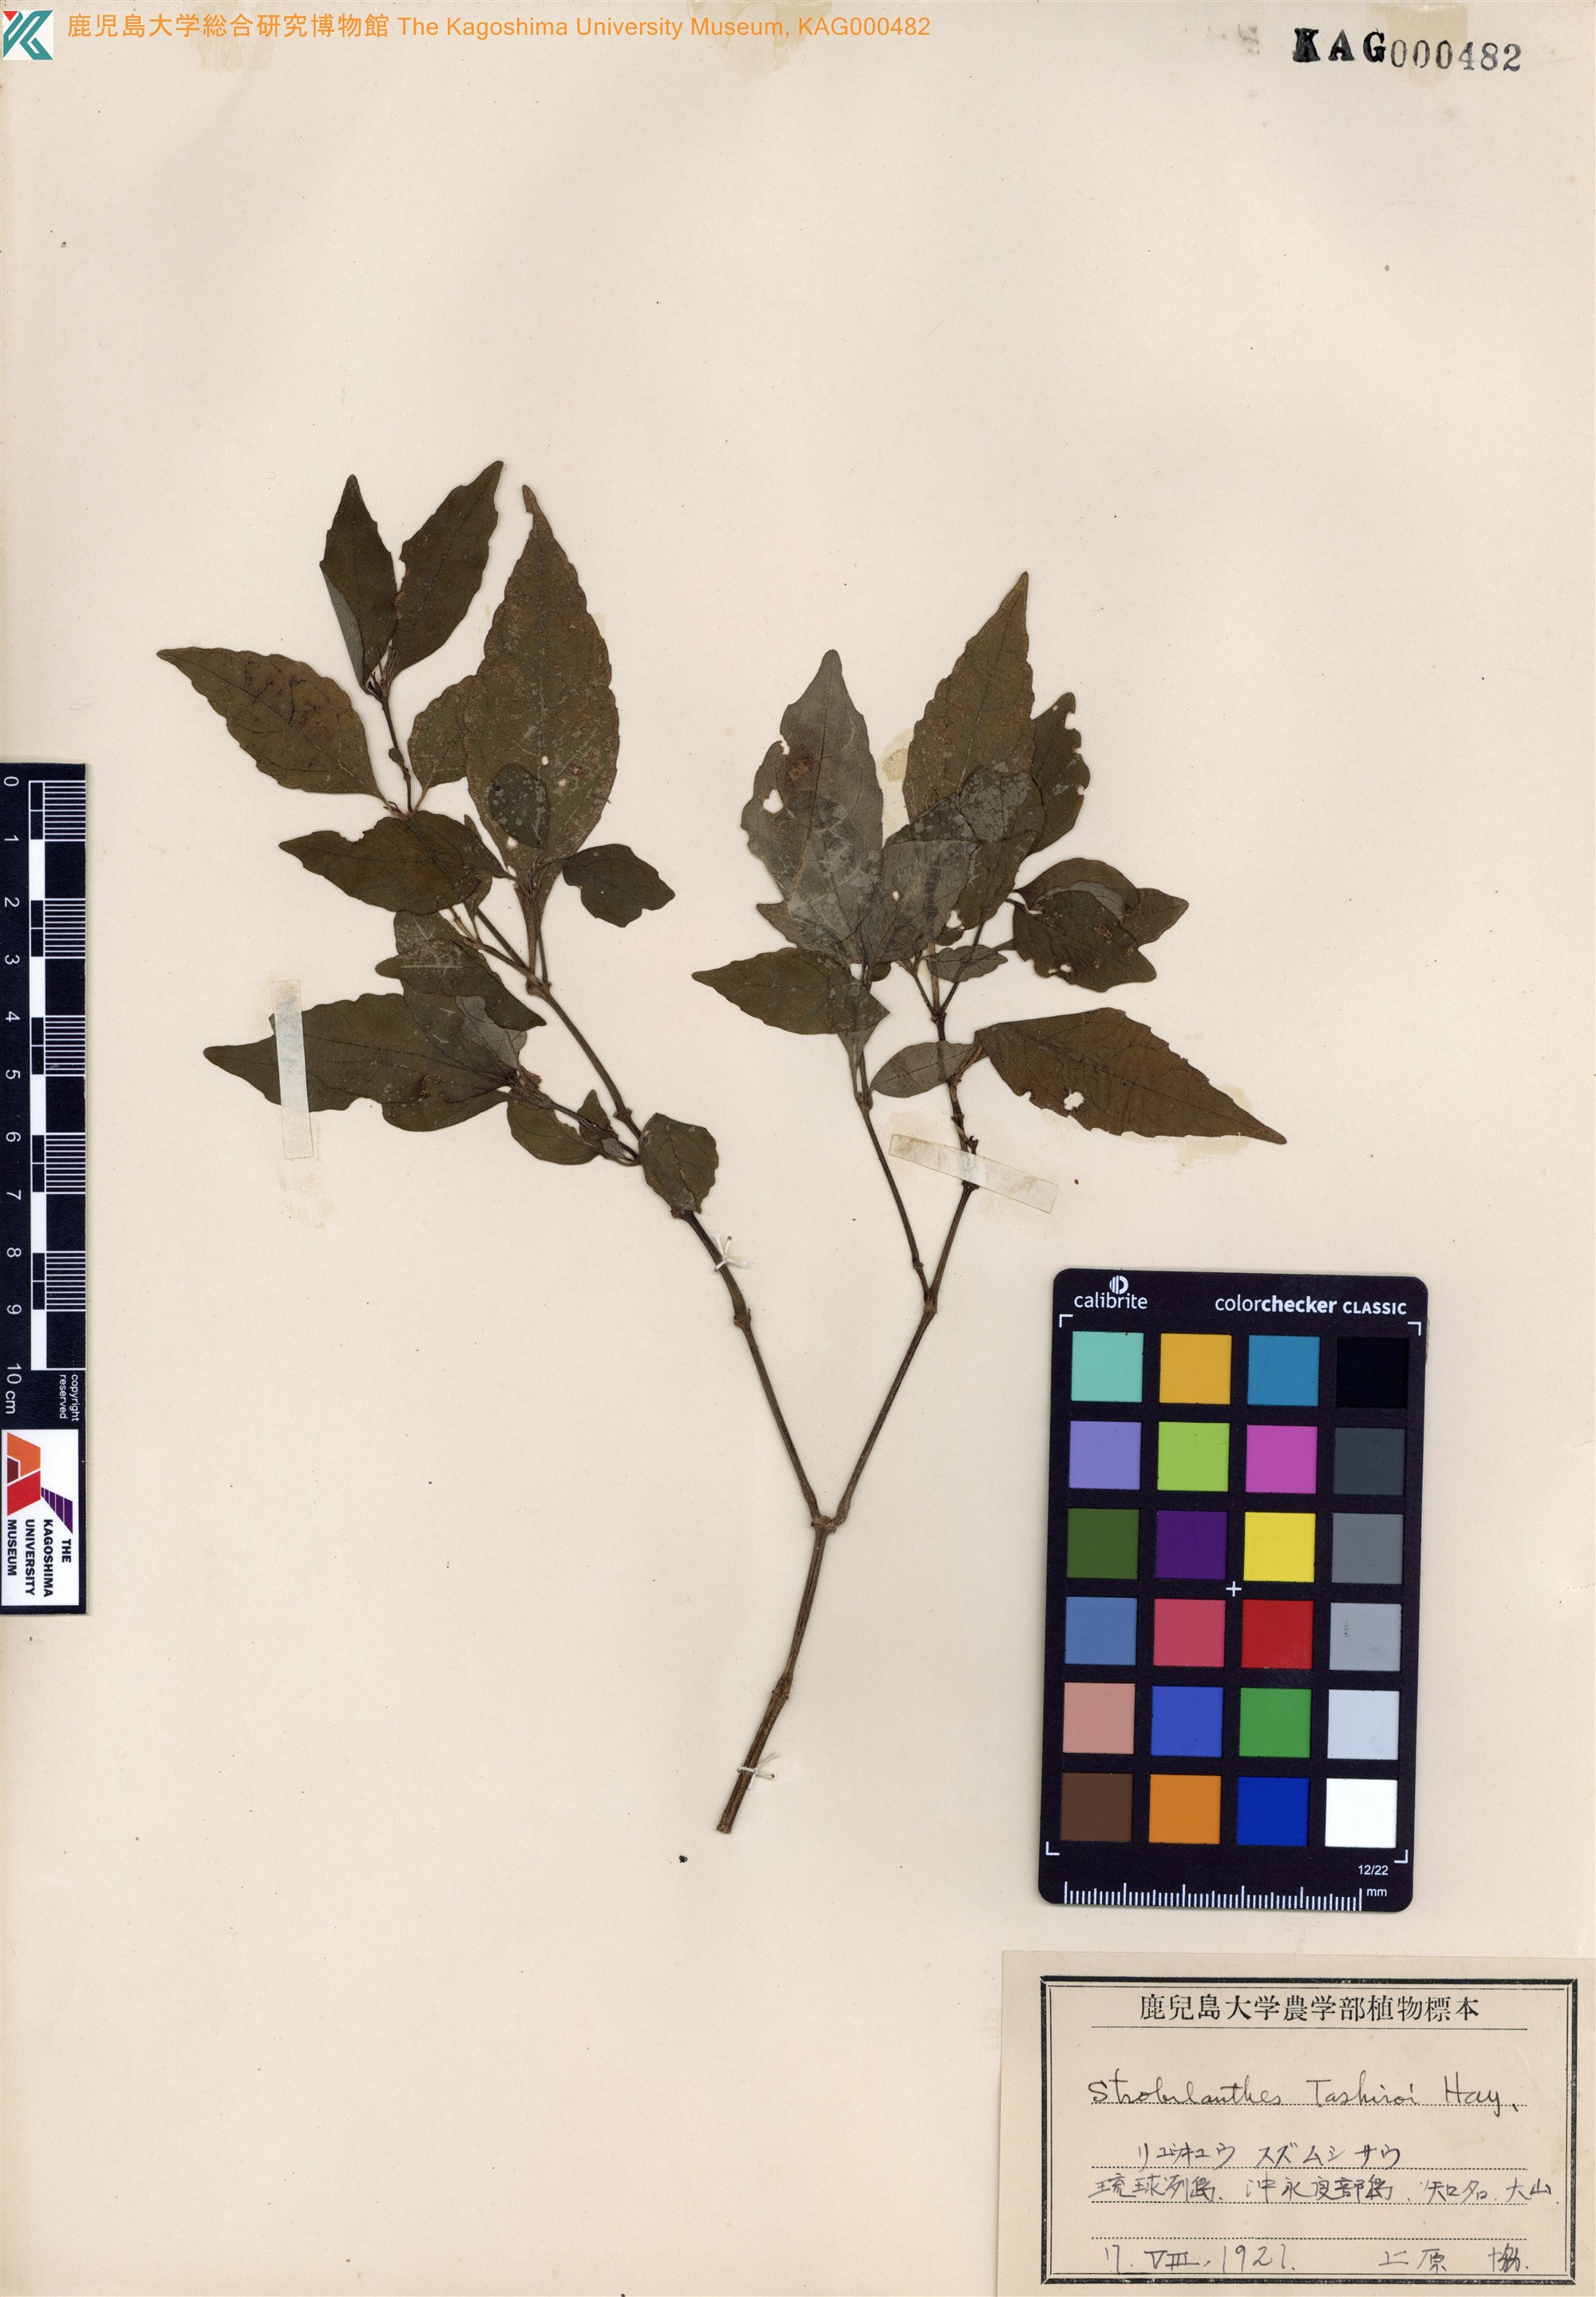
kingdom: Plantae
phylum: Tracheophyta
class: Magnoliopsida
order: Lamiales
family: Acanthaceae
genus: Strobilanthes
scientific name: Strobilanthes flexicaulis
